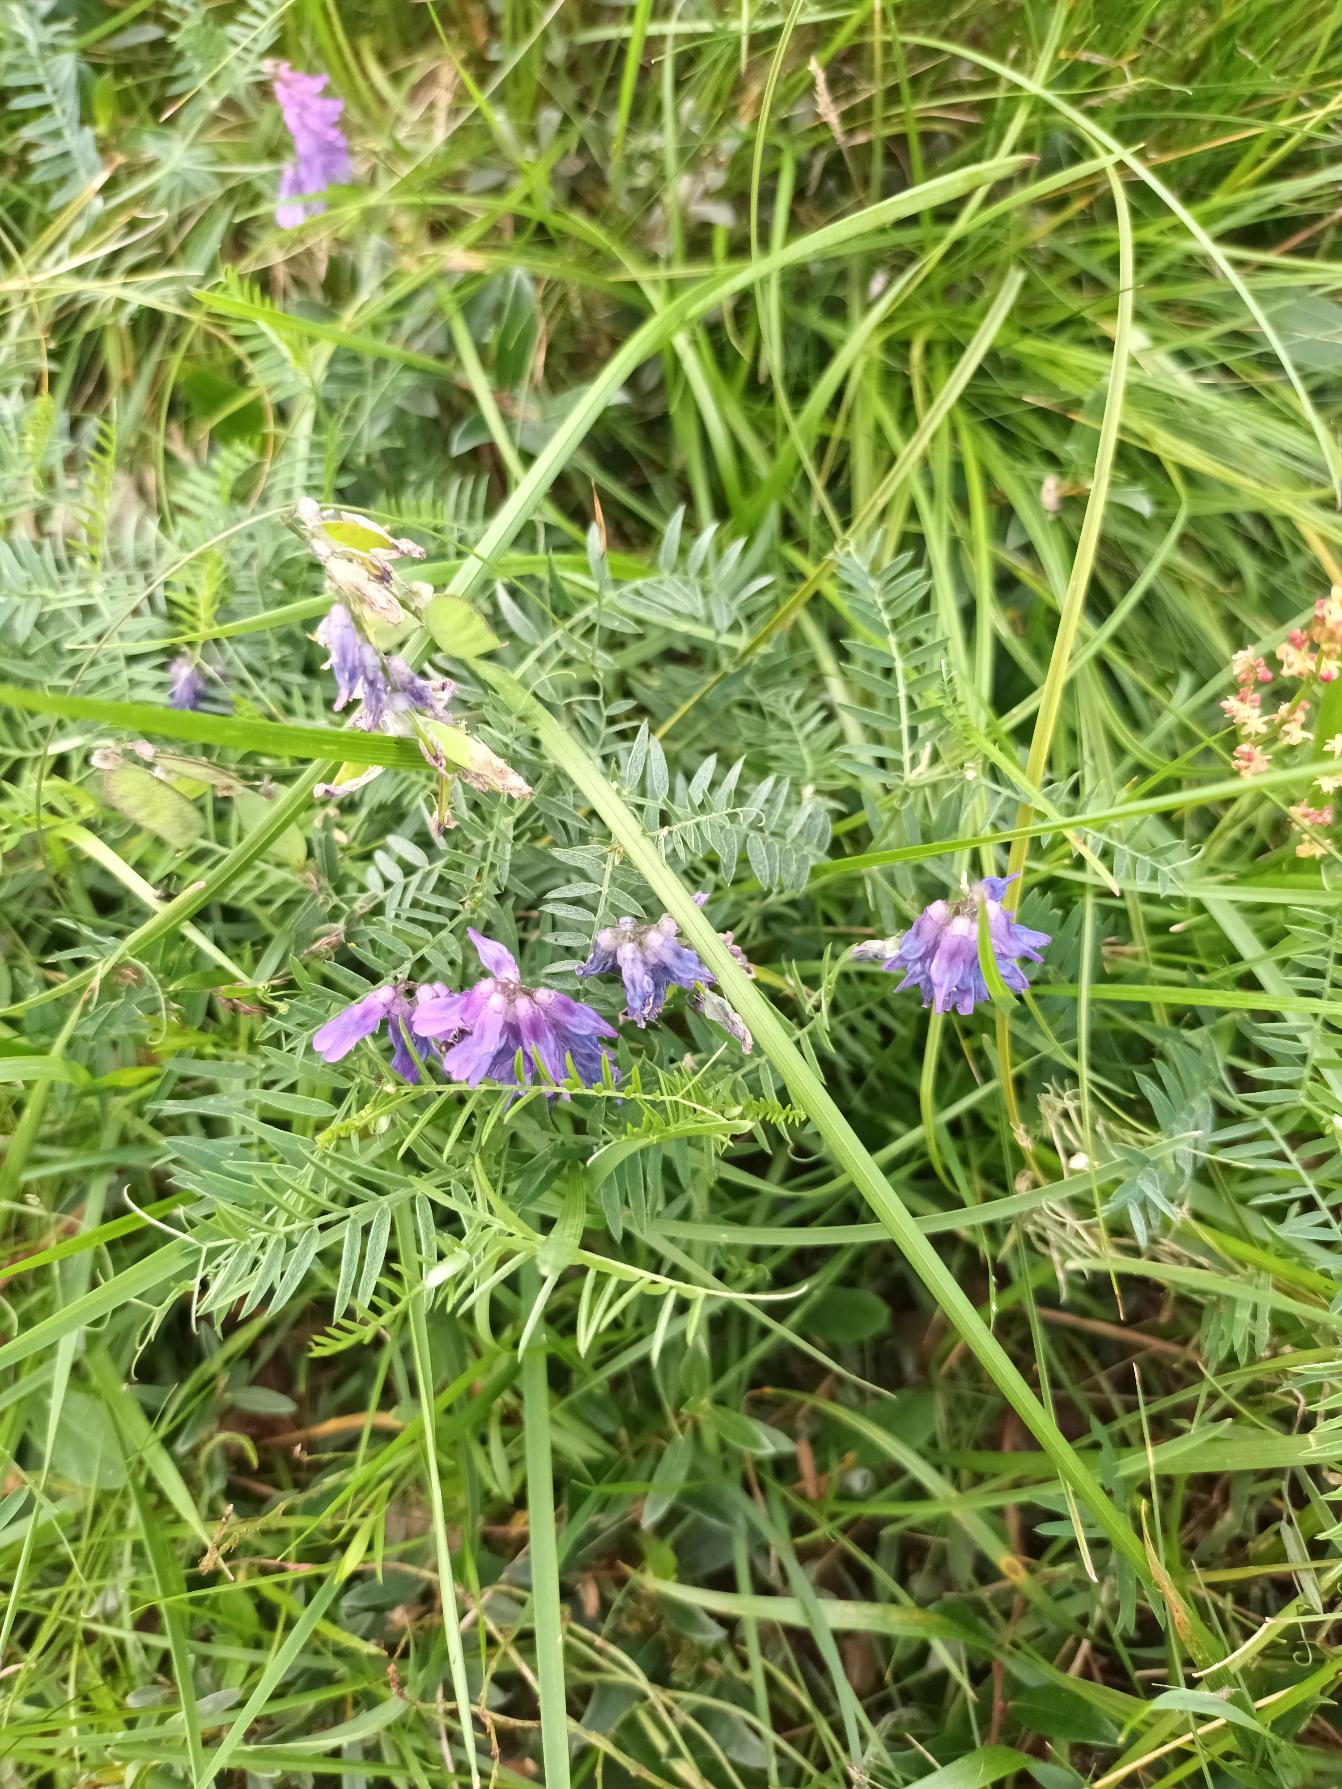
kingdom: Plantae
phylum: Tracheophyta
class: Magnoliopsida
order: Fabales
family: Fabaceae
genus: Vicia
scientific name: Vicia cracca
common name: Muse-vikke
